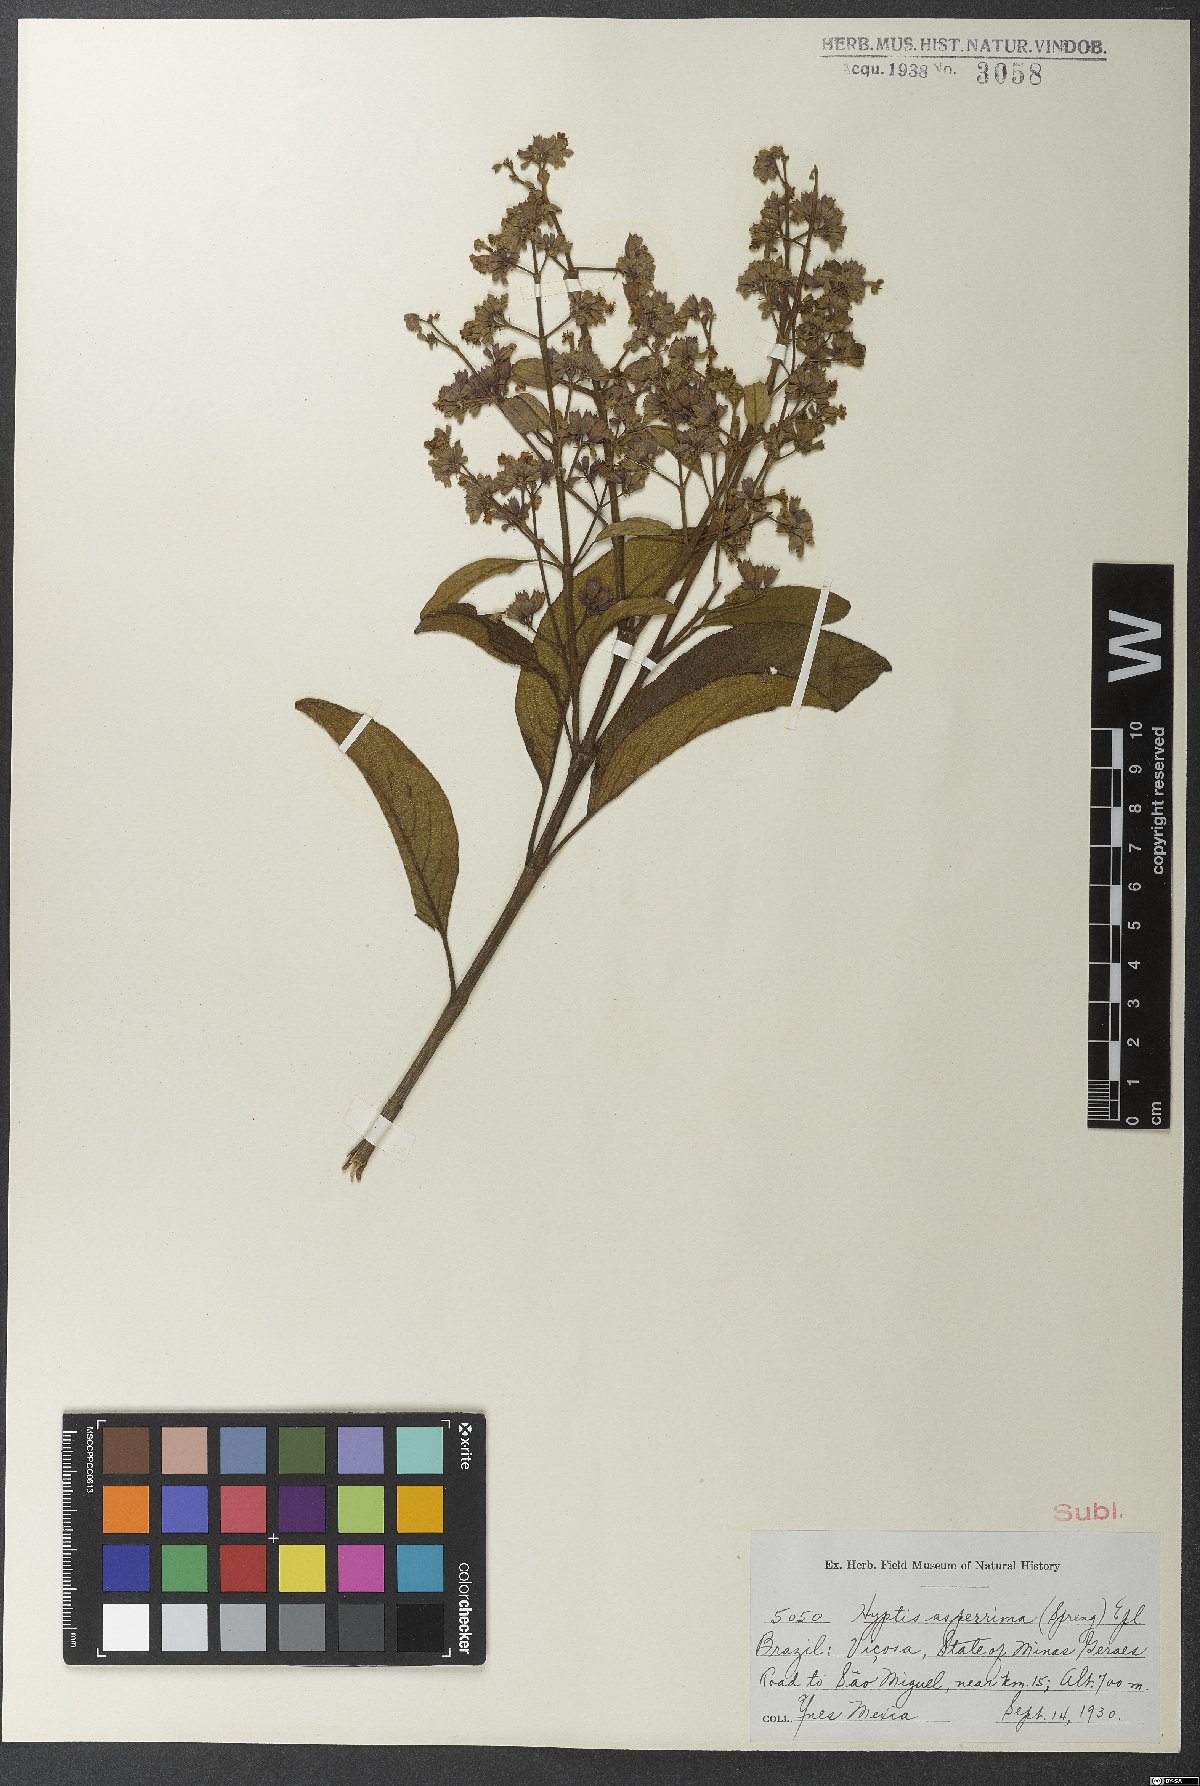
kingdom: Plantae
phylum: Tracheophyta
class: Magnoliopsida
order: Lamiales
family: Lamiaceae
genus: Hyptidendron
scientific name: Hyptidendron asperrimum
